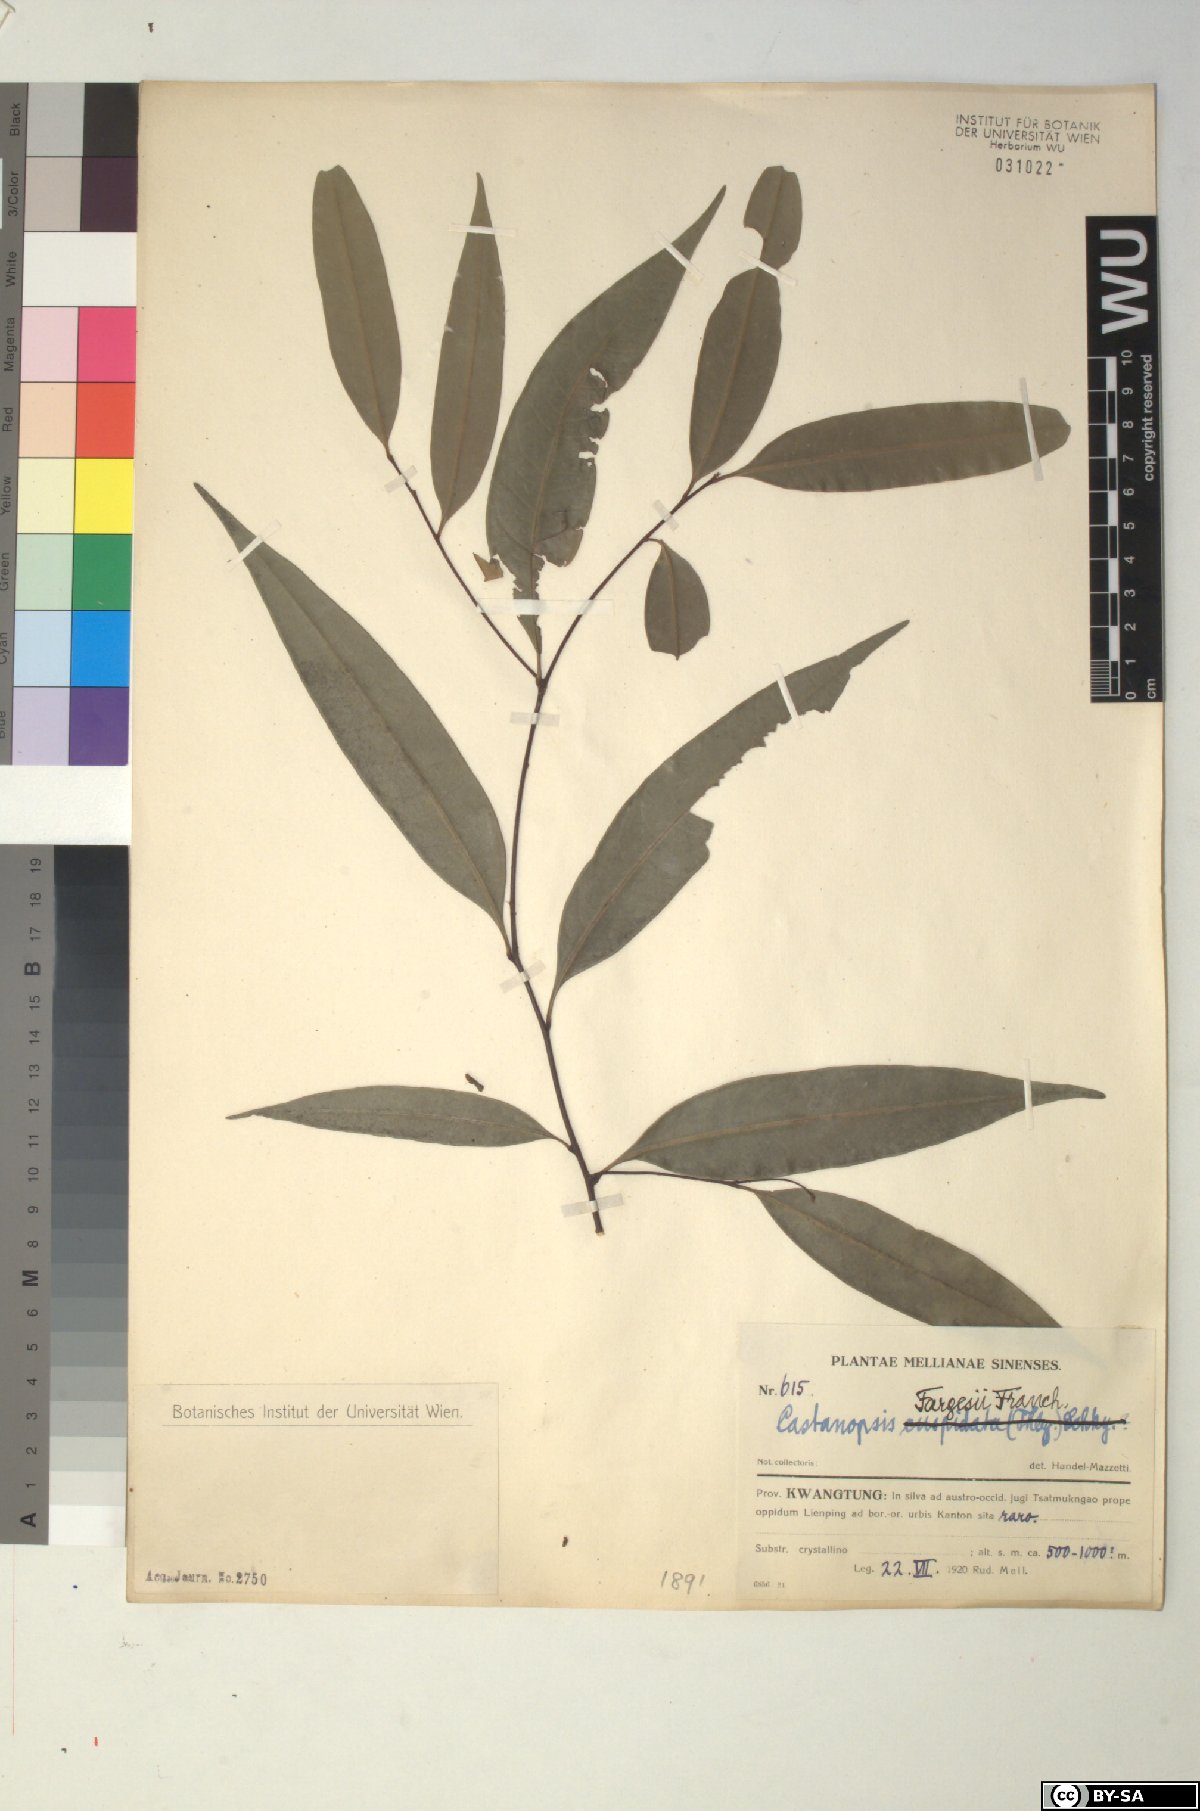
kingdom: Plantae
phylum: Tracheophyta
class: Magnoliopsida
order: Fagales
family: Fagaceae
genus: Castanopsis
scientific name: Castanopsis fargesii
